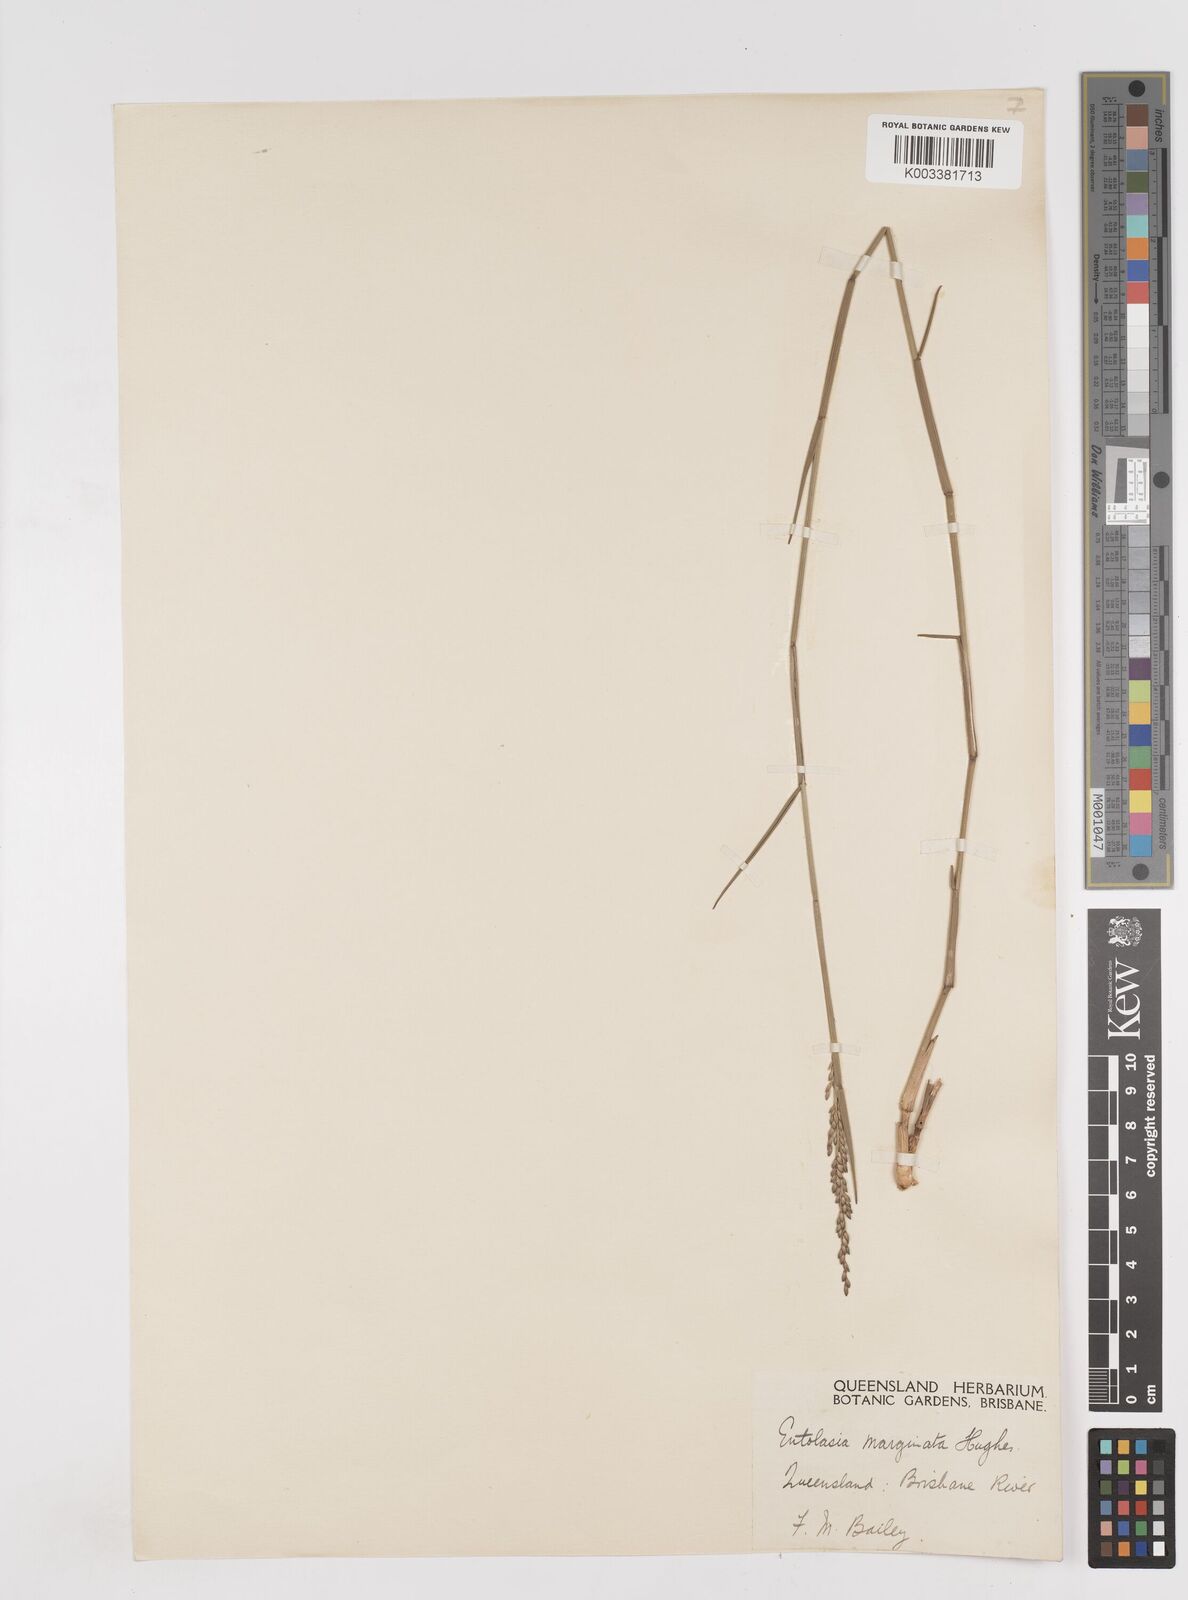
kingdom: Plantae
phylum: Tracheophyta
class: Liliopsida
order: Poales
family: Poaceae
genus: Entolasia
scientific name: Entolasia stricta
